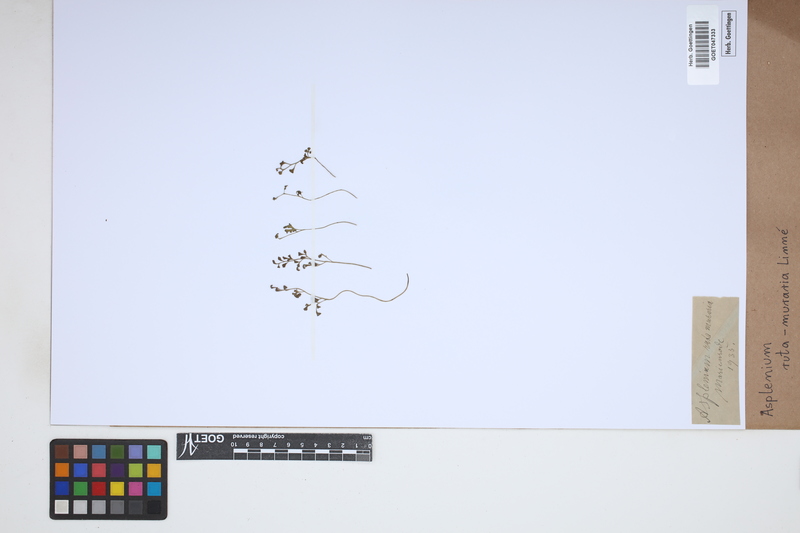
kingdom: Plantae
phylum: Tracheophyta
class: Polypodiopsida
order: Polypodiales
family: Aspleniaceae
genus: Asplenium
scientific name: Asplenium ruta-muraria
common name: Wall-rue
